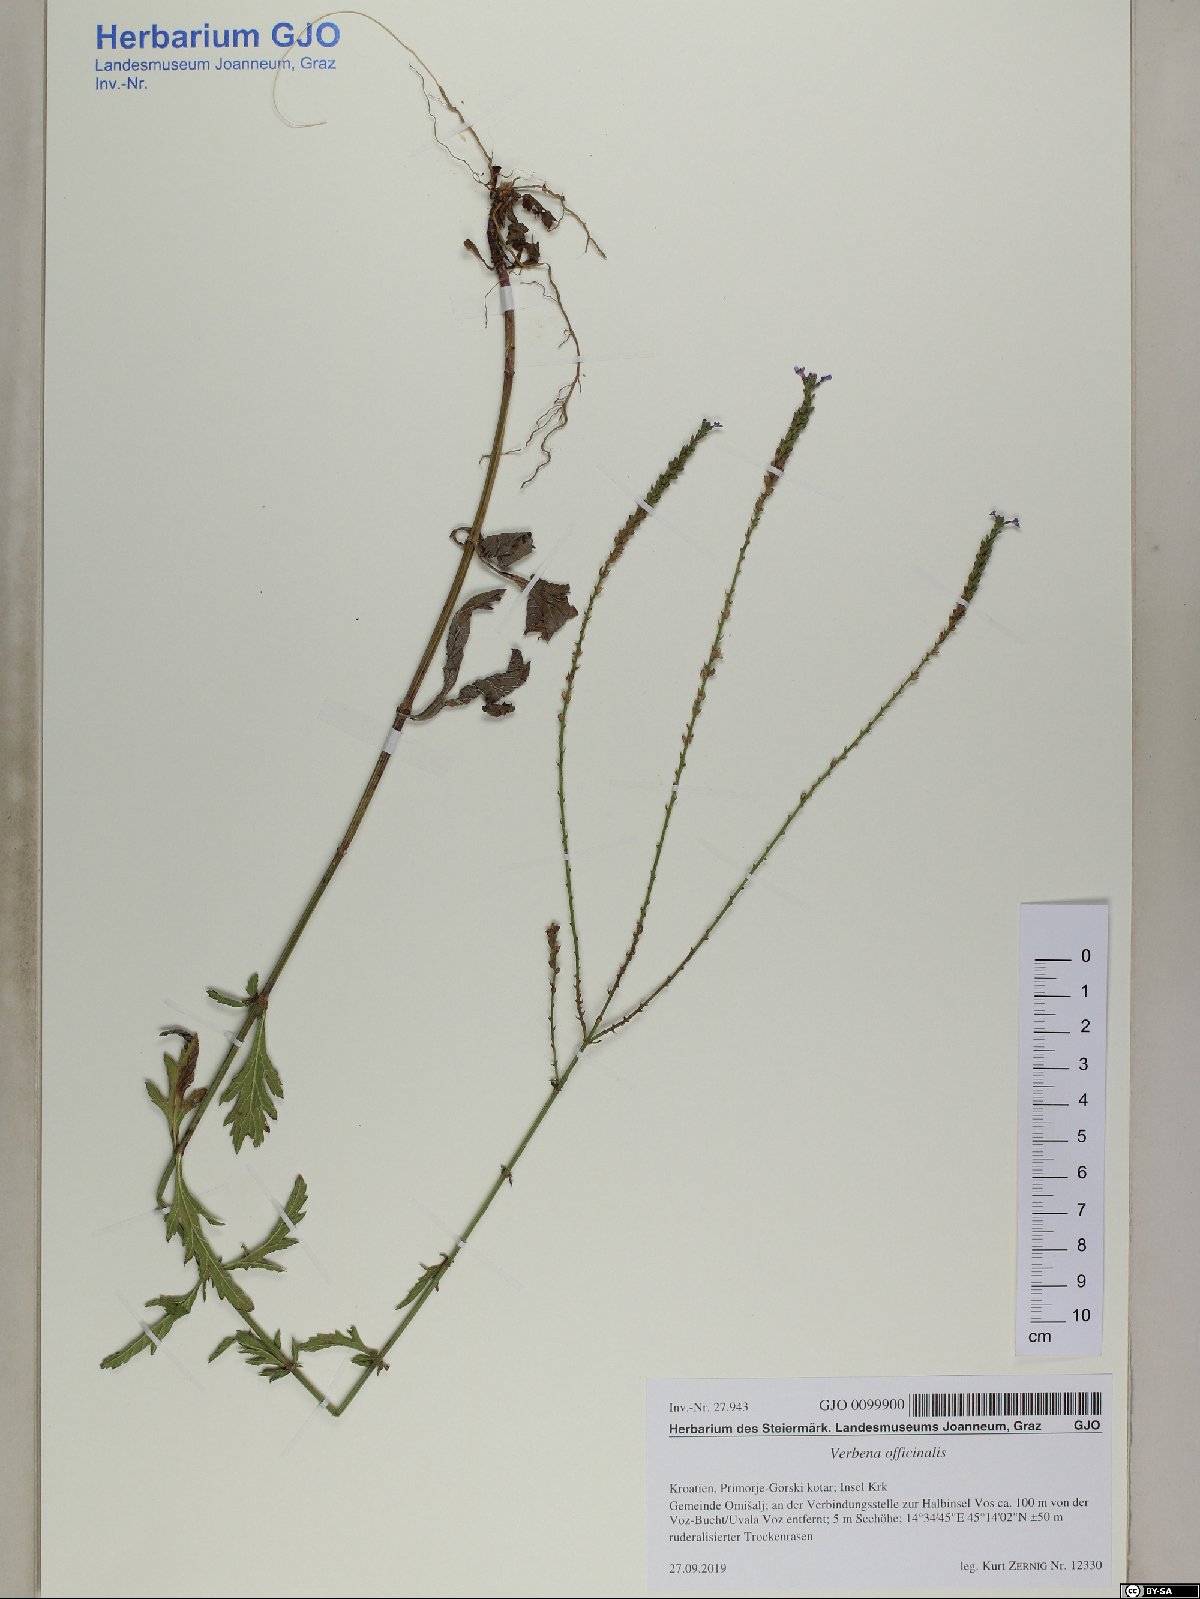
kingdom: Plantae
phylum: Tracheophyta
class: Magnoliopsida
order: Lamiales
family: Verbenaceae
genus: Verbena
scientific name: Verbena officinalis
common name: Vervain
